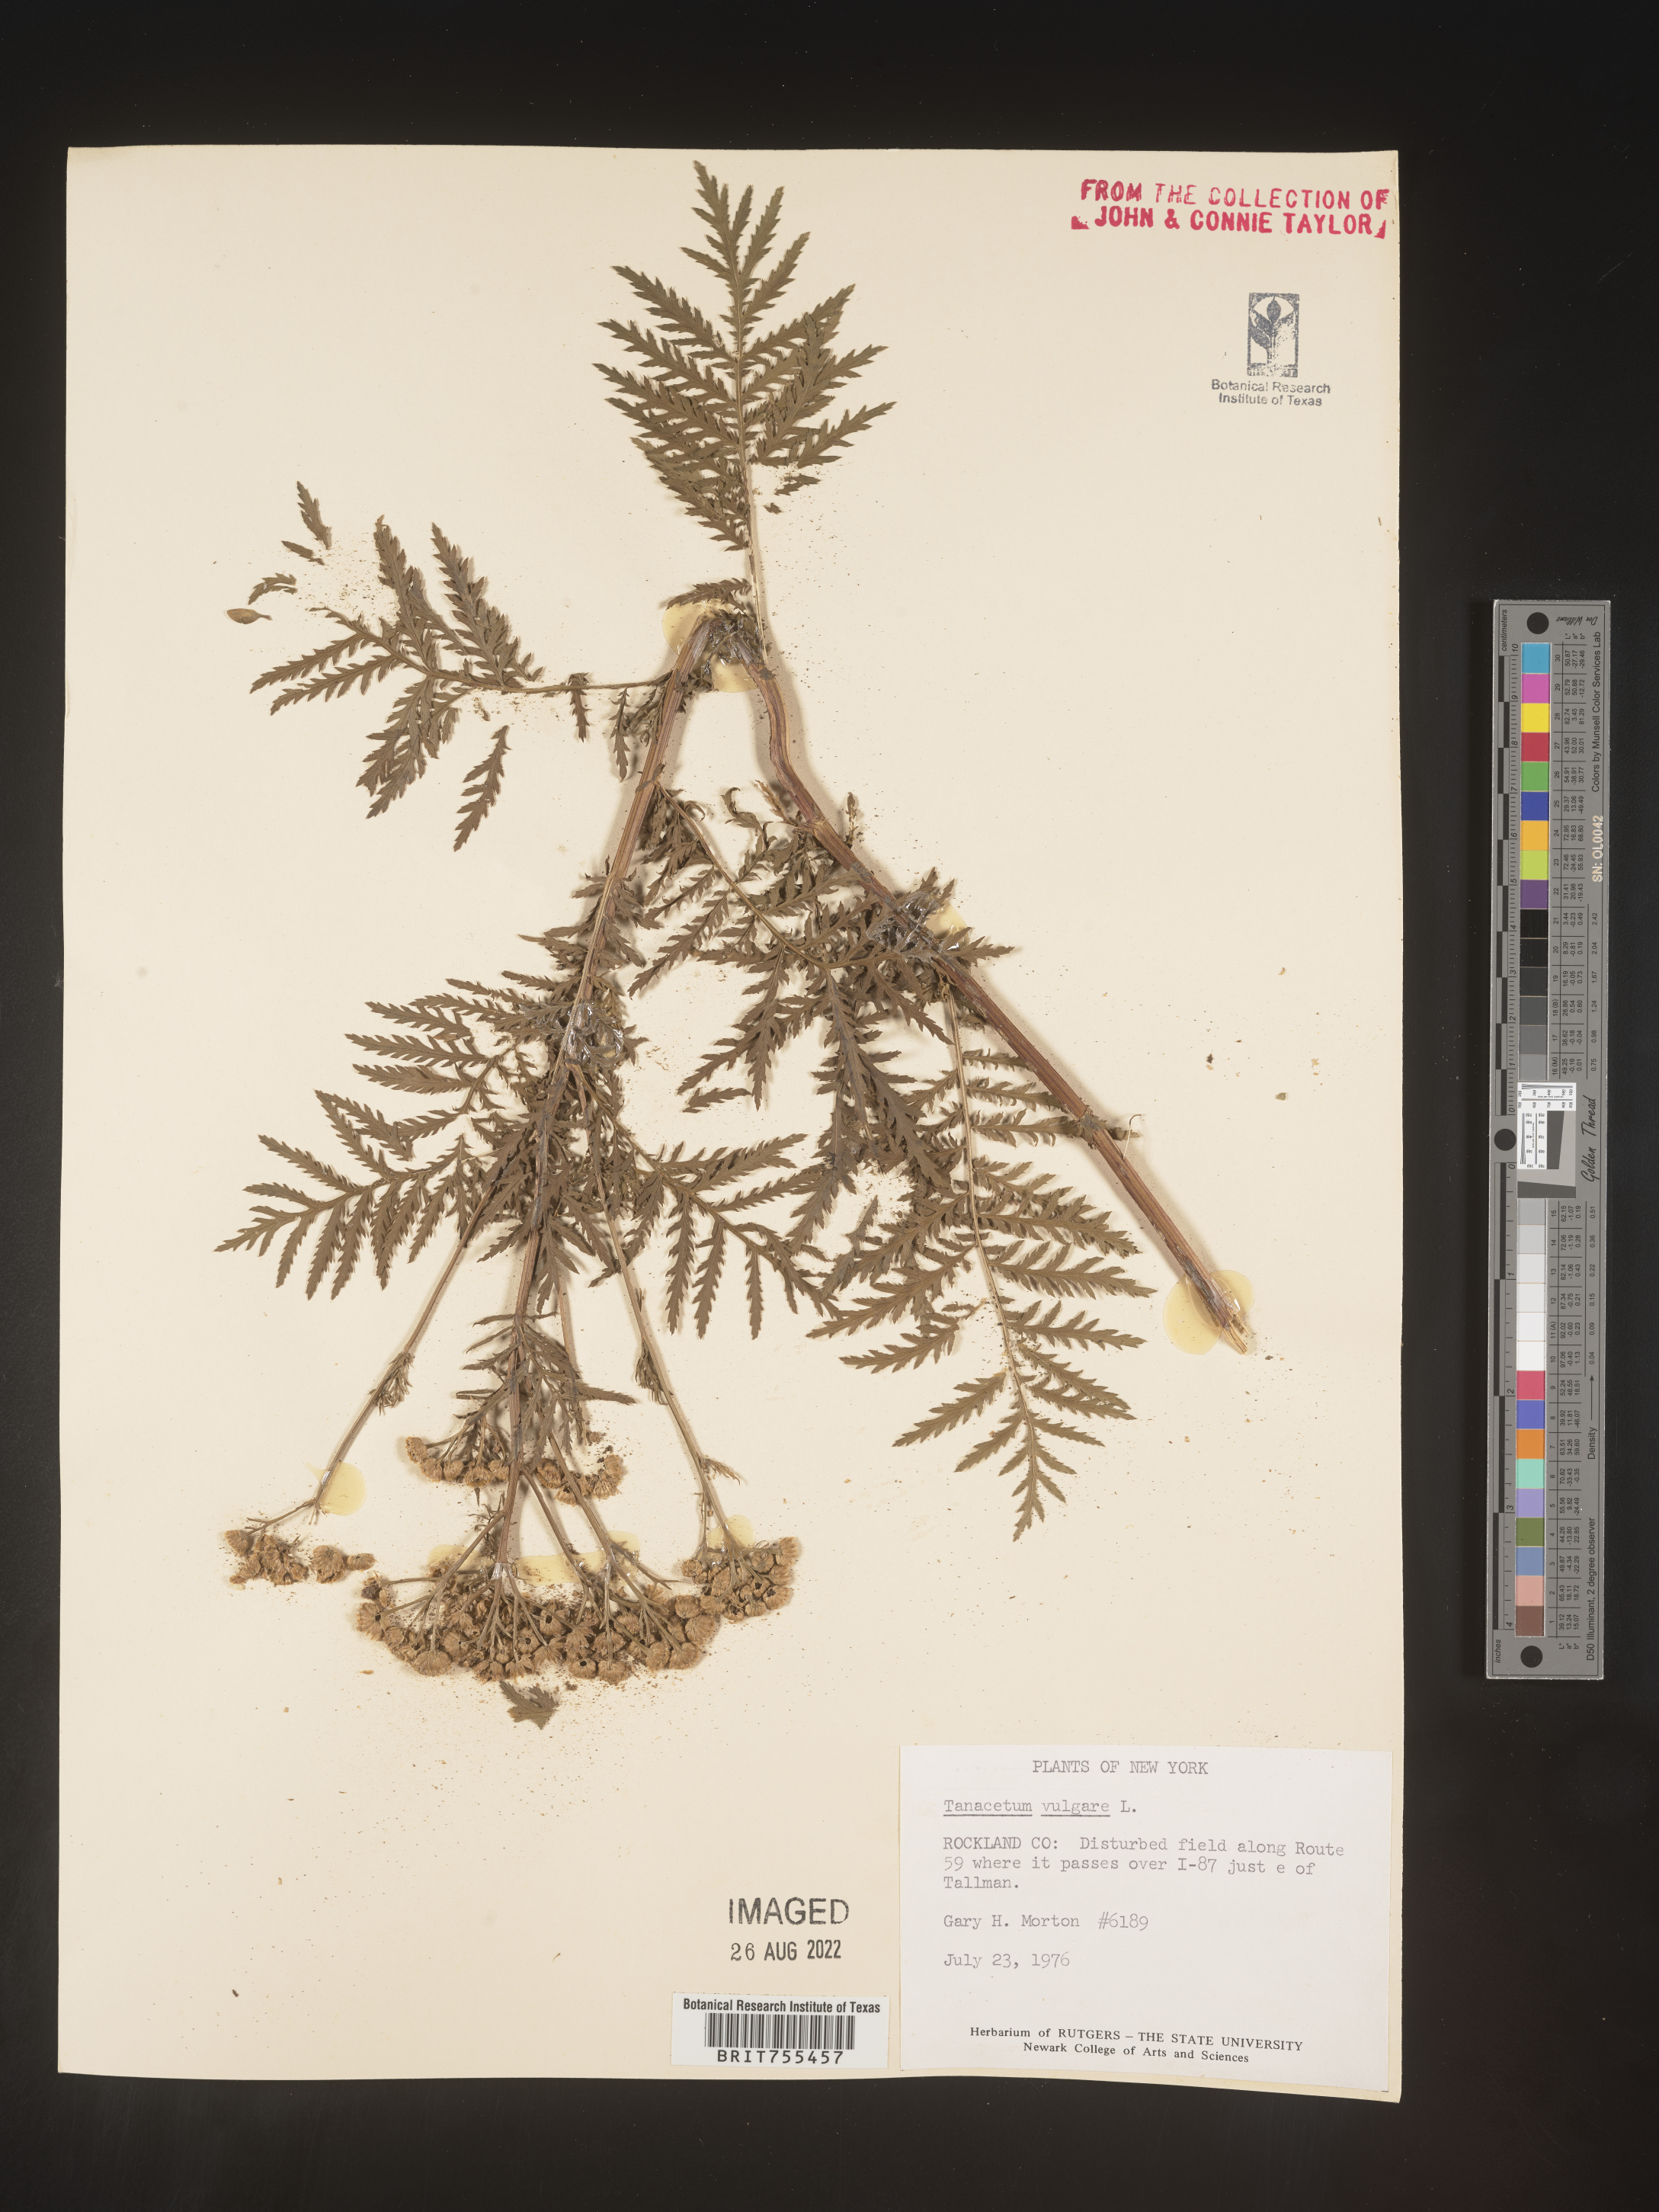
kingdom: Plantae
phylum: Tracheophyta
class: Magnoliopsida
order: Asterales
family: Asteraceae
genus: Tanacetum
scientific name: Tanacetum vulgare
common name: Common tansy
